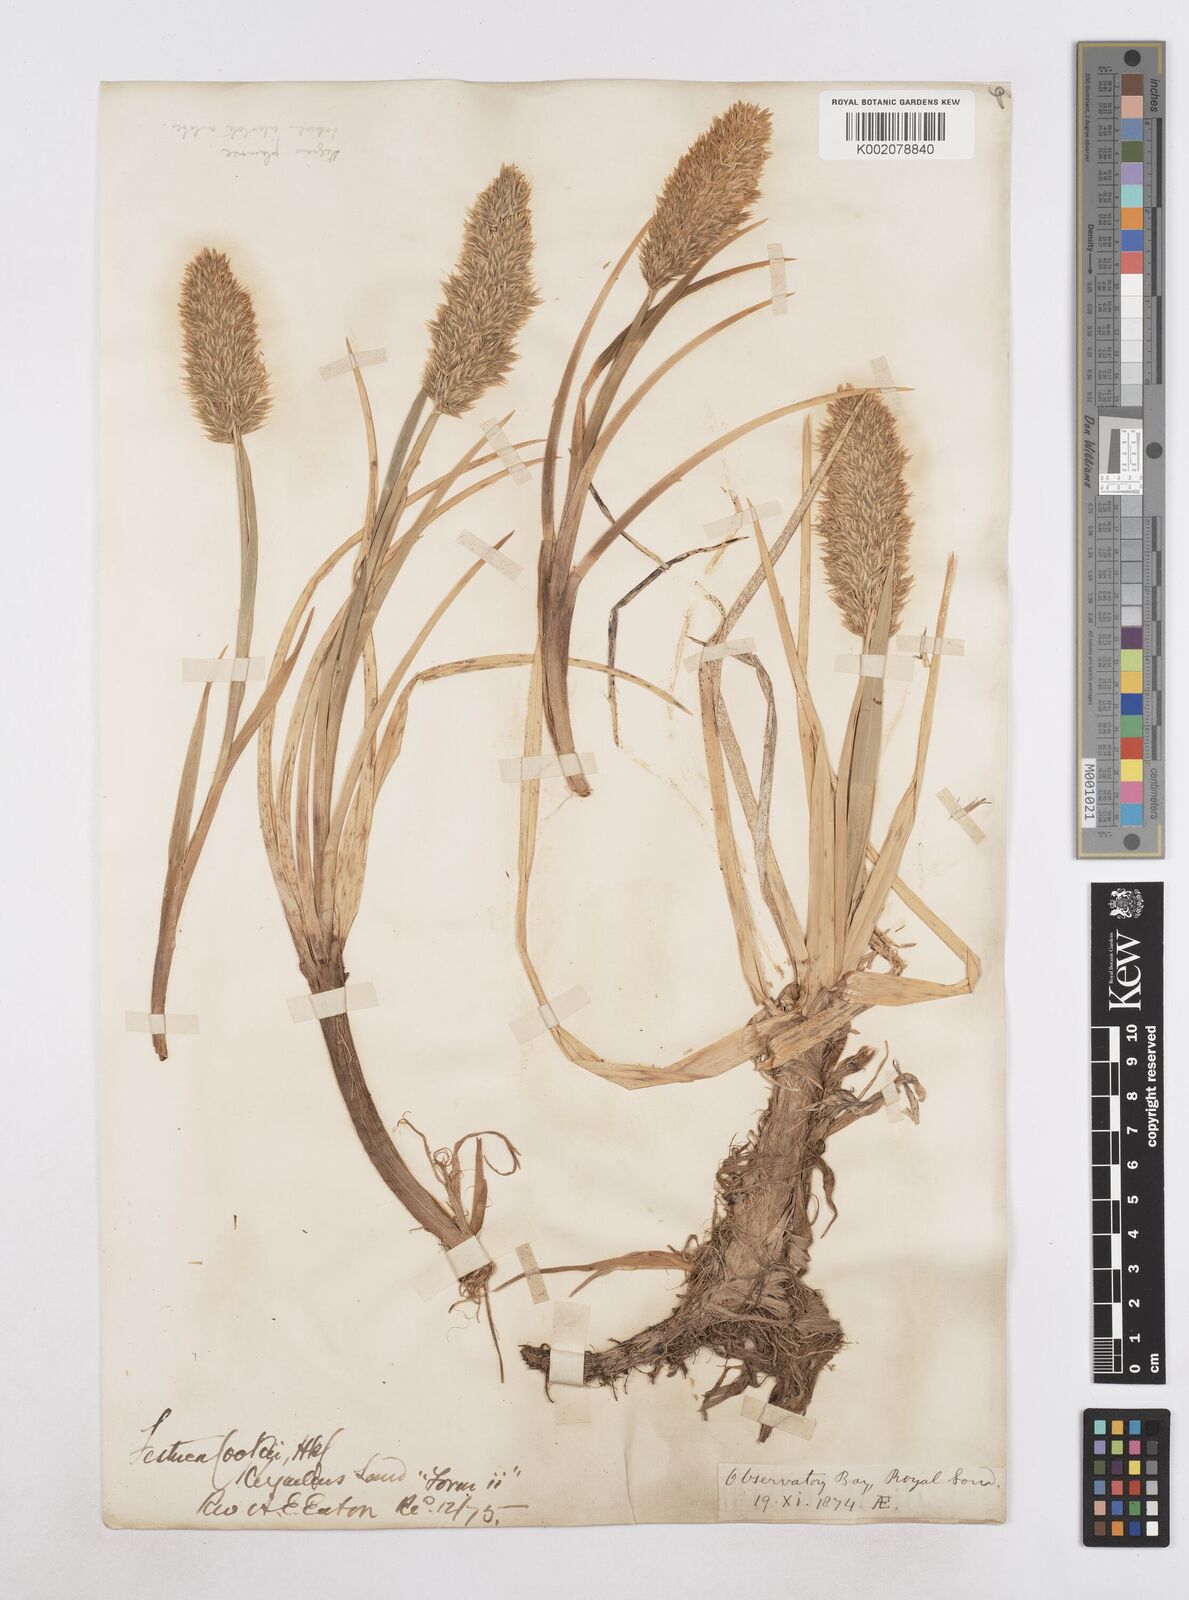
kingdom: Plantae
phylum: Tracheophyta
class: Liliopsida
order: Poales
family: Poaceae
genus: Poa
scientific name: Poa cookii
